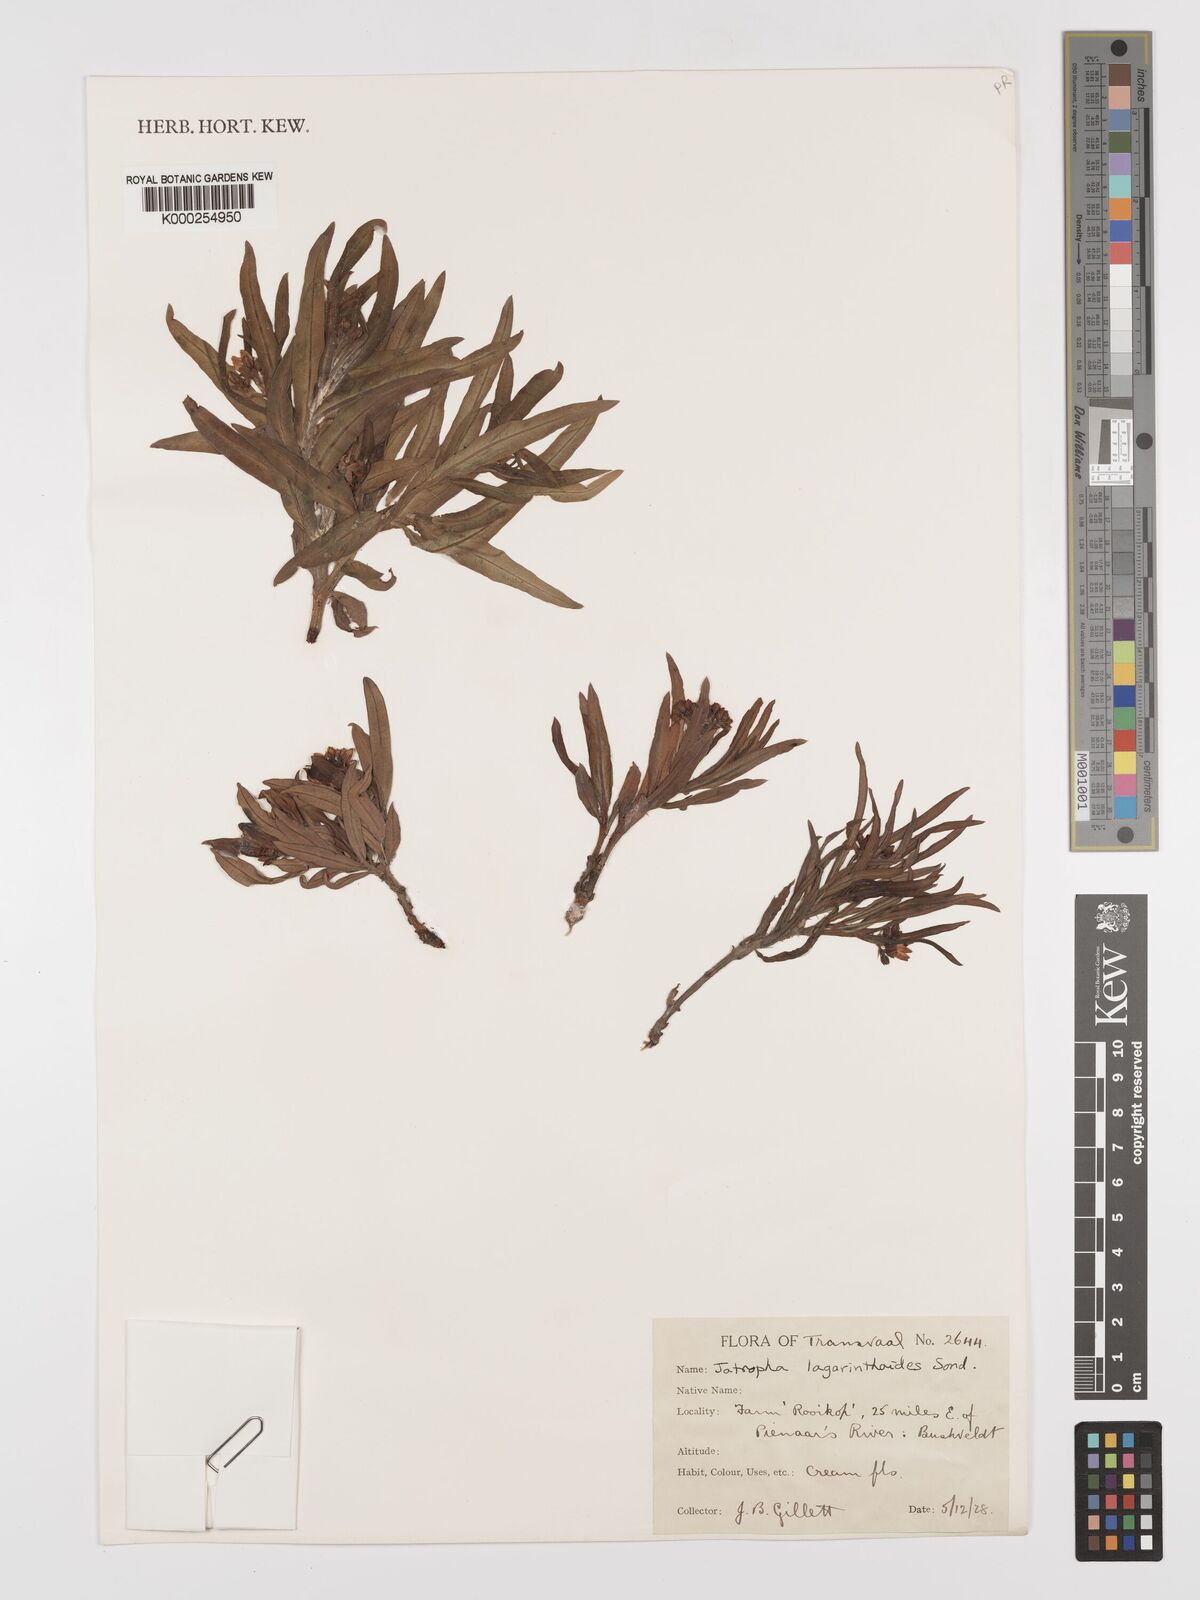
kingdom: Plantae
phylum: Tracheophyta
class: Magnoliopsida
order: Malpighiales
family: Euphorbiaceae
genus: Jatropha
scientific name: Jatropha lagarinthoides
